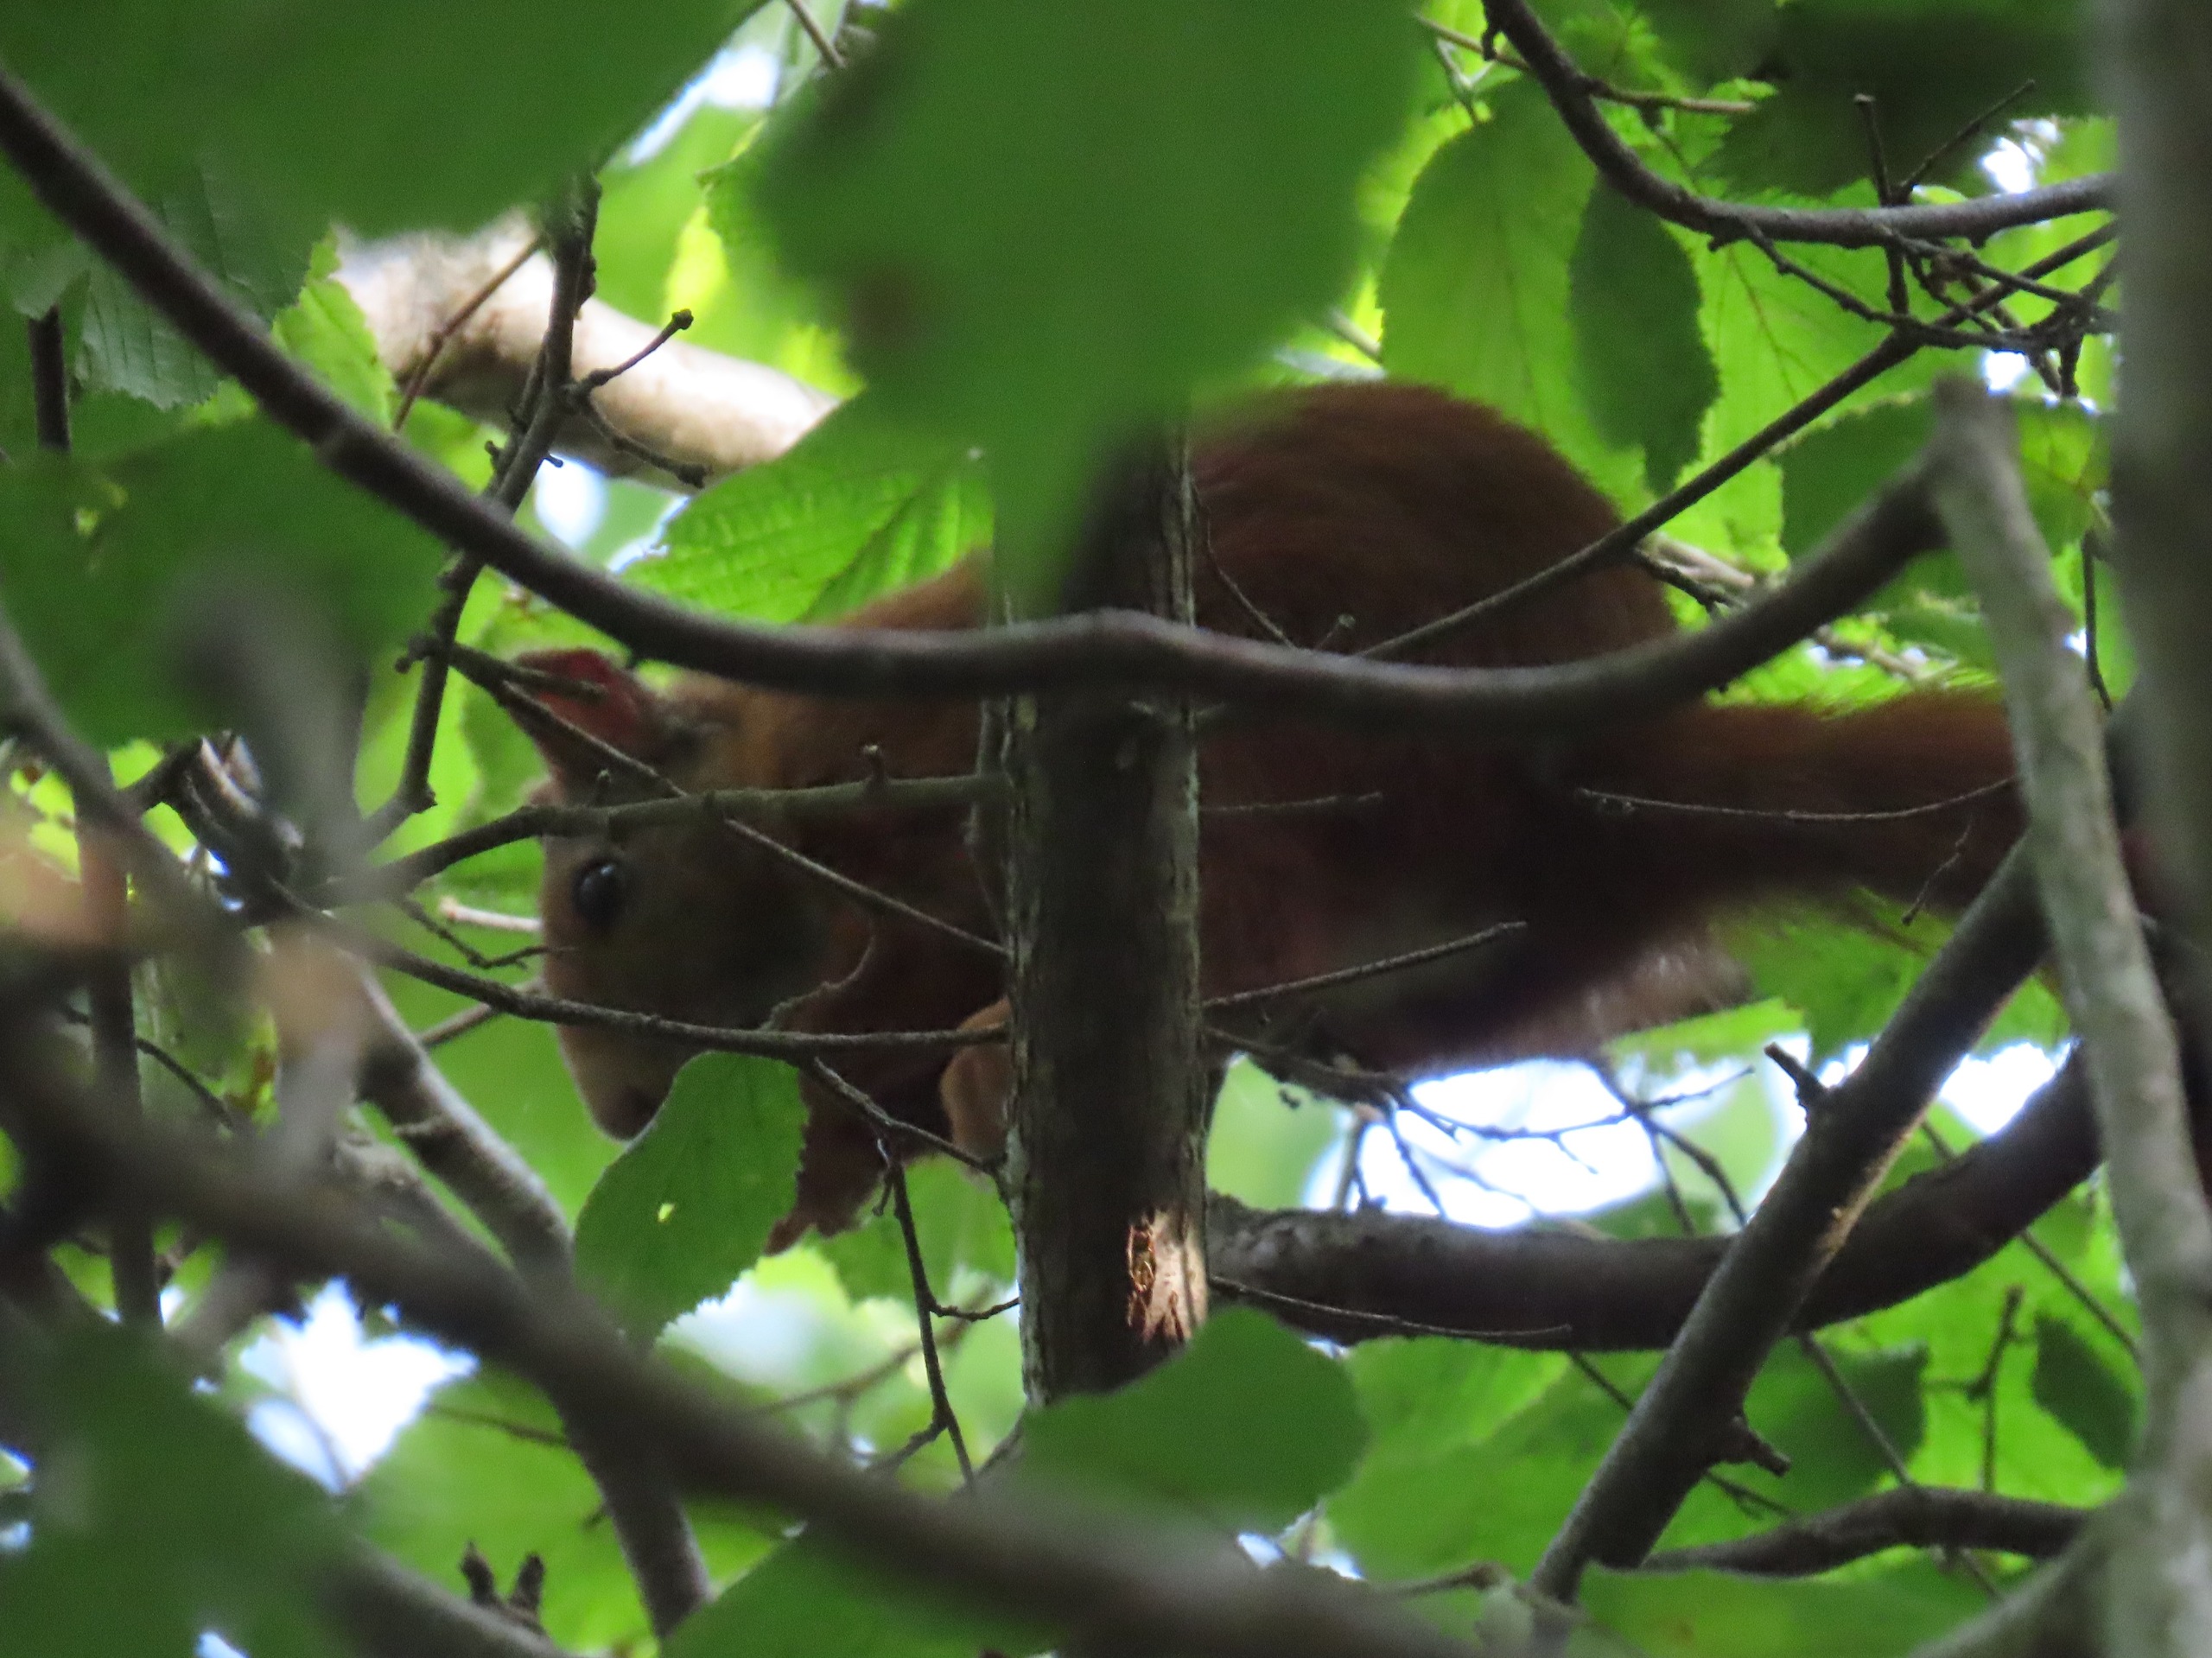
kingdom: Animalia
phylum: Chordata
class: Mammalia
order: Rodentia
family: Sciuridae
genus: Sciurus
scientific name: Sciurus vulgaris
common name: Egern
